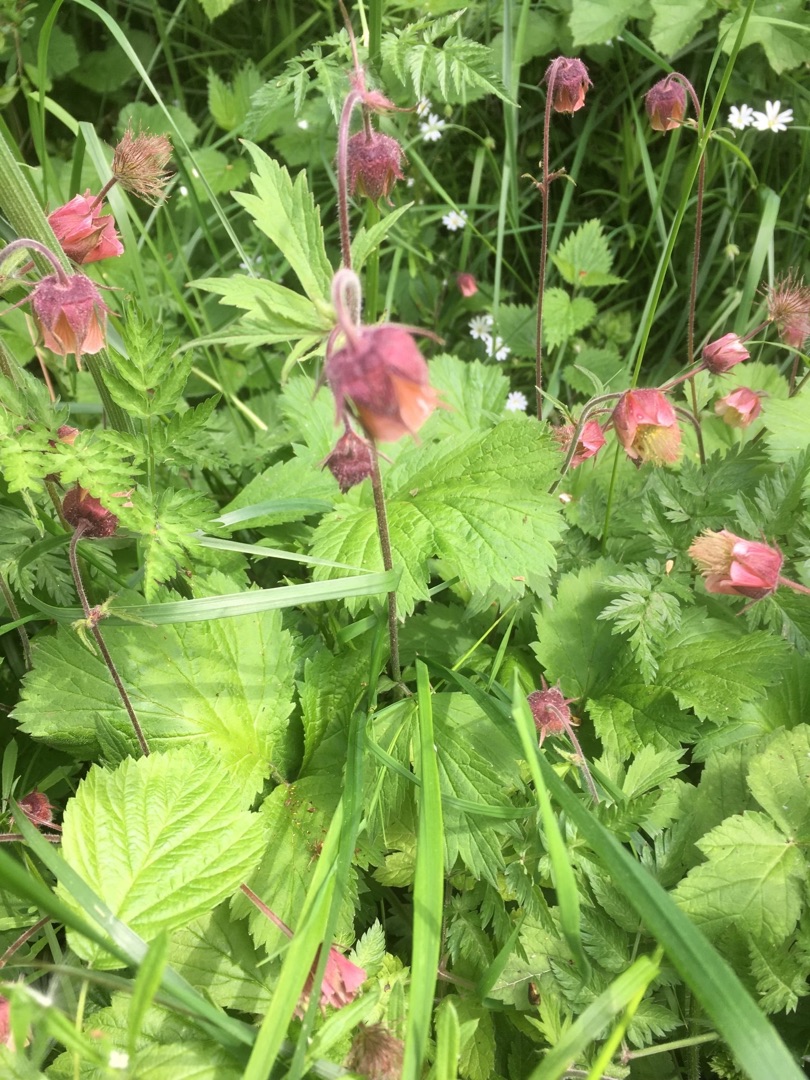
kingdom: Plantae
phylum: Tracheophyta
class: Magnoliopsida
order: Rosales
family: Rosaceae
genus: Geum
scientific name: Geum rivale
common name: Eng-nellikerod
